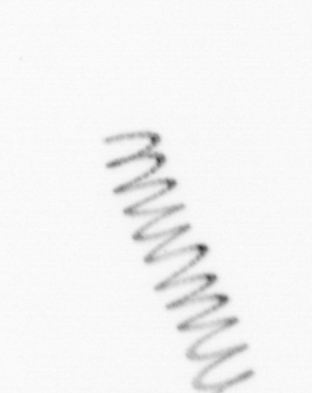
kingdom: Chromista
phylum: Ochrophyta
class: Bacillariophyceae
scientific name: Bacillariophyceae
